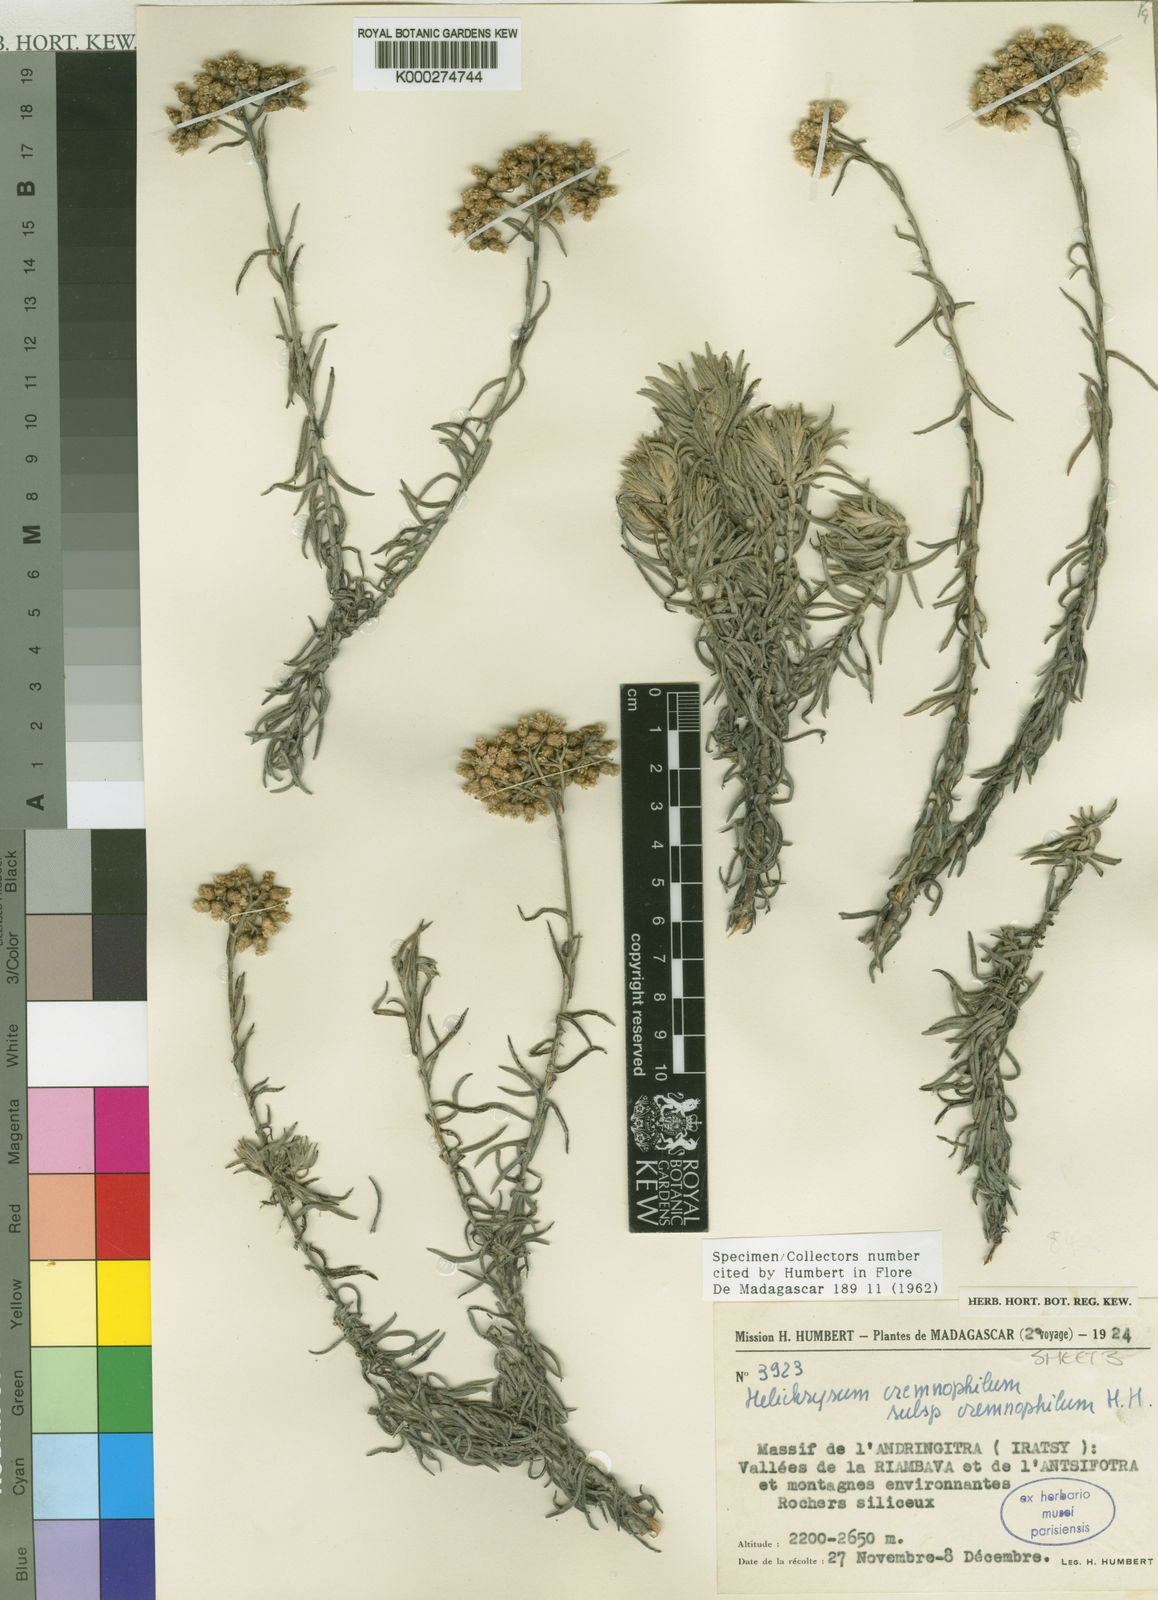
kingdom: Plantae
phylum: Tracheophyta
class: Magnoliopsida
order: Asterales
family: Asteraceae
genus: Helichrysum
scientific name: Helichrysum cremnophilum
